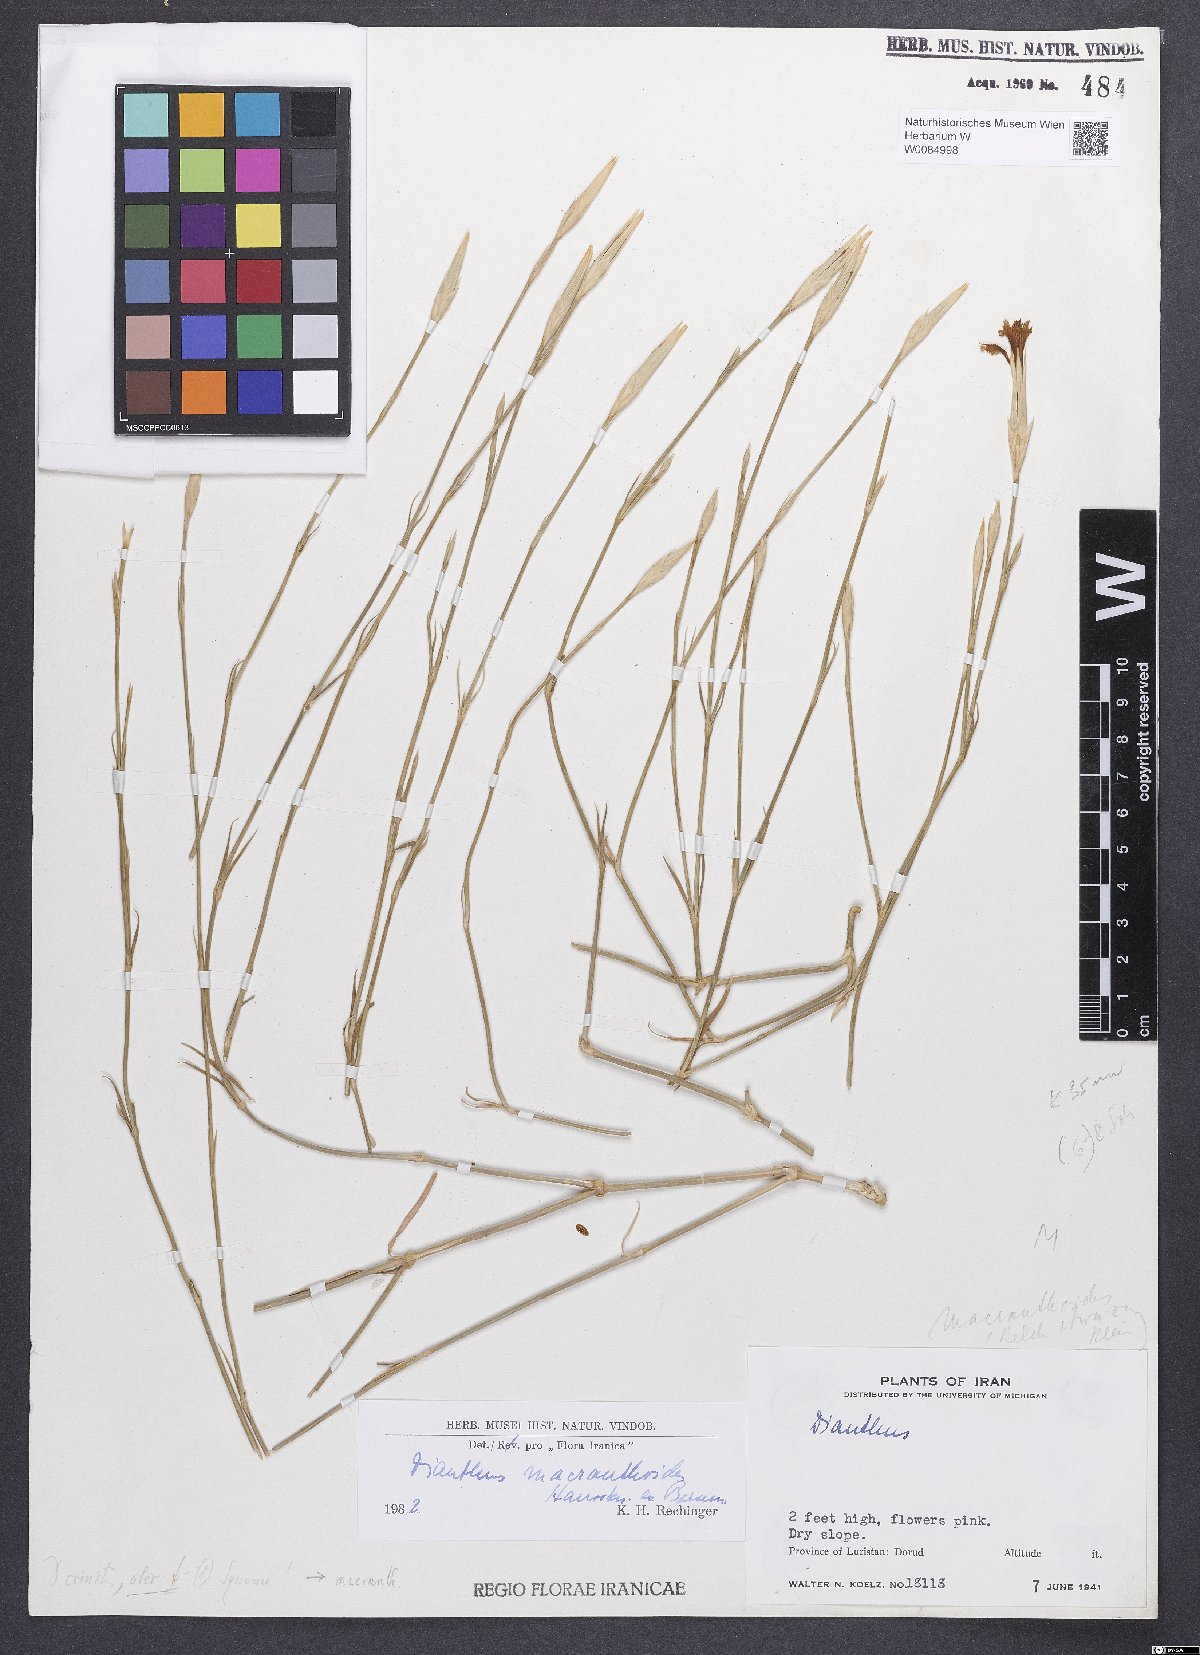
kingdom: Plantae
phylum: Tracheophyta
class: Magnoliopsida
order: Caryophyllales
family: Caryophyllaceae
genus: Dianthus
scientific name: Dianthus macranthoides
